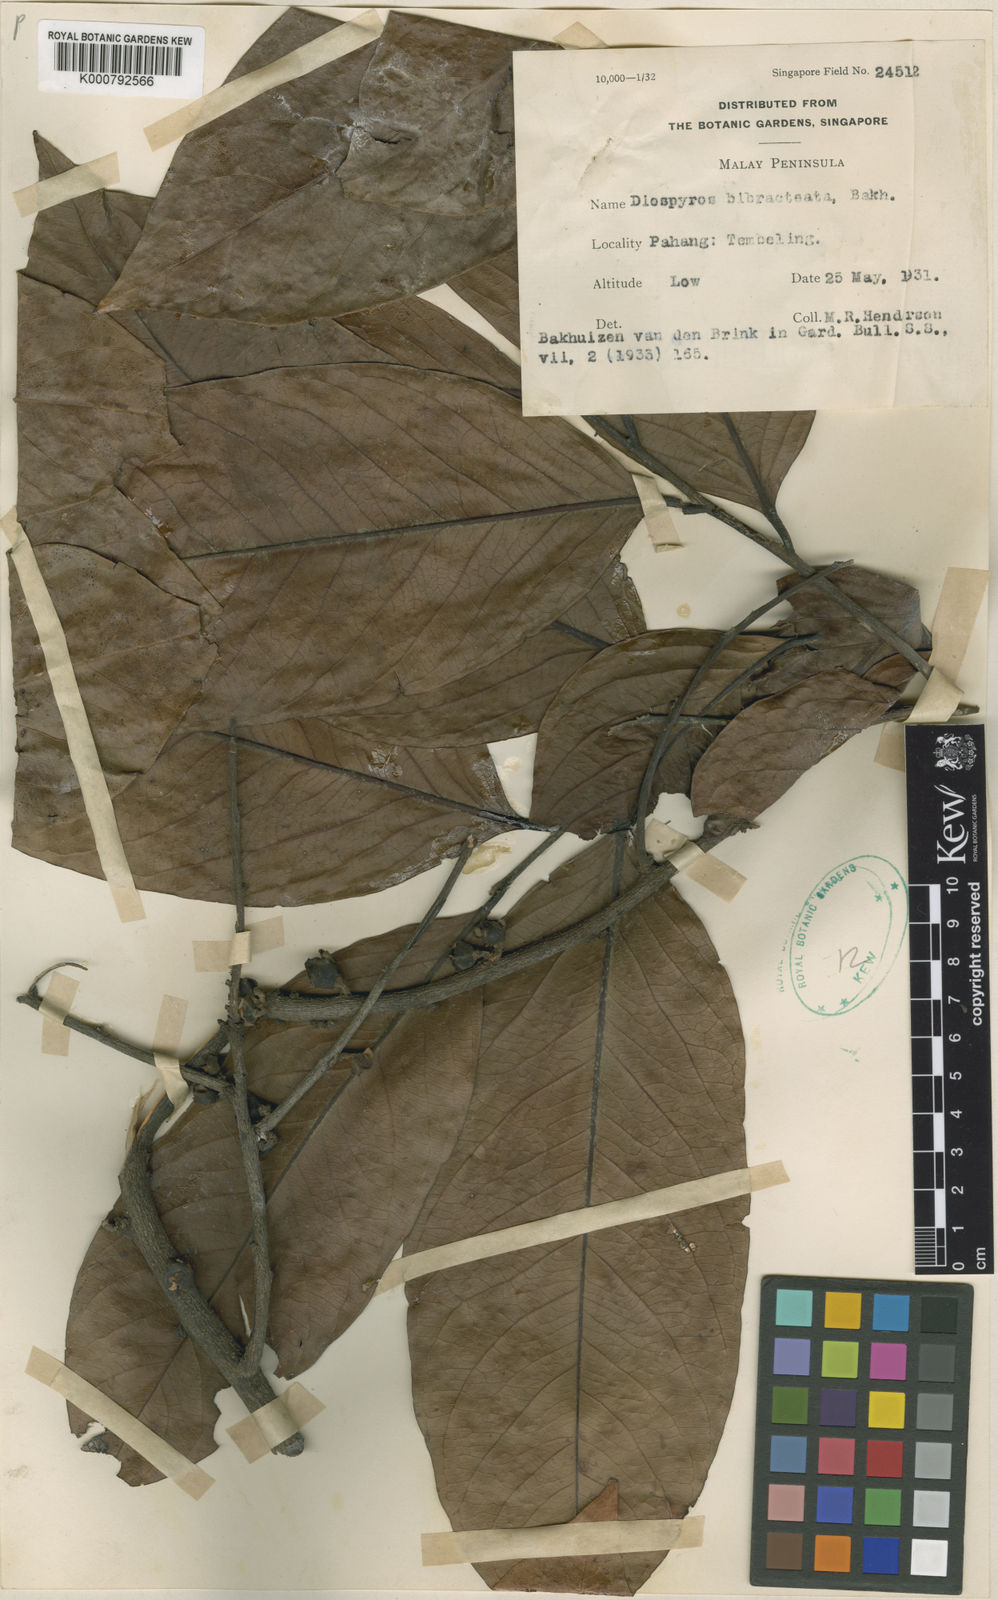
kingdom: Plantae
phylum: Tracheophyta
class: Magnoliopsida
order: Ericales
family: Ebenaceae
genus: Diospyros
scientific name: Diospyros bibracteata
